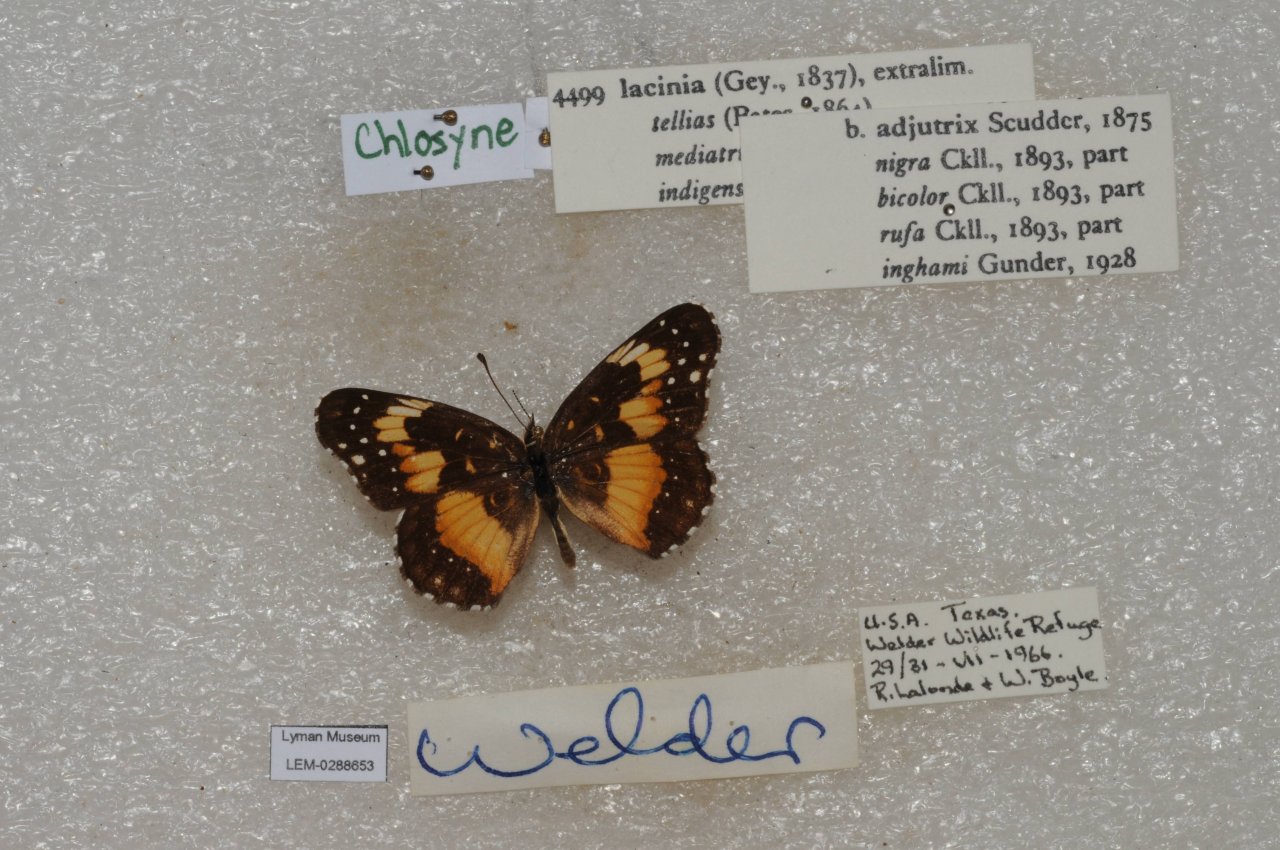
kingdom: Animalia
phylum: Arthropoda
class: Insecta
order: Lepidoptera
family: Nymphalidae
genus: Chlosyne
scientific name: Chlosyne lacinia
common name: Bordered Patch
